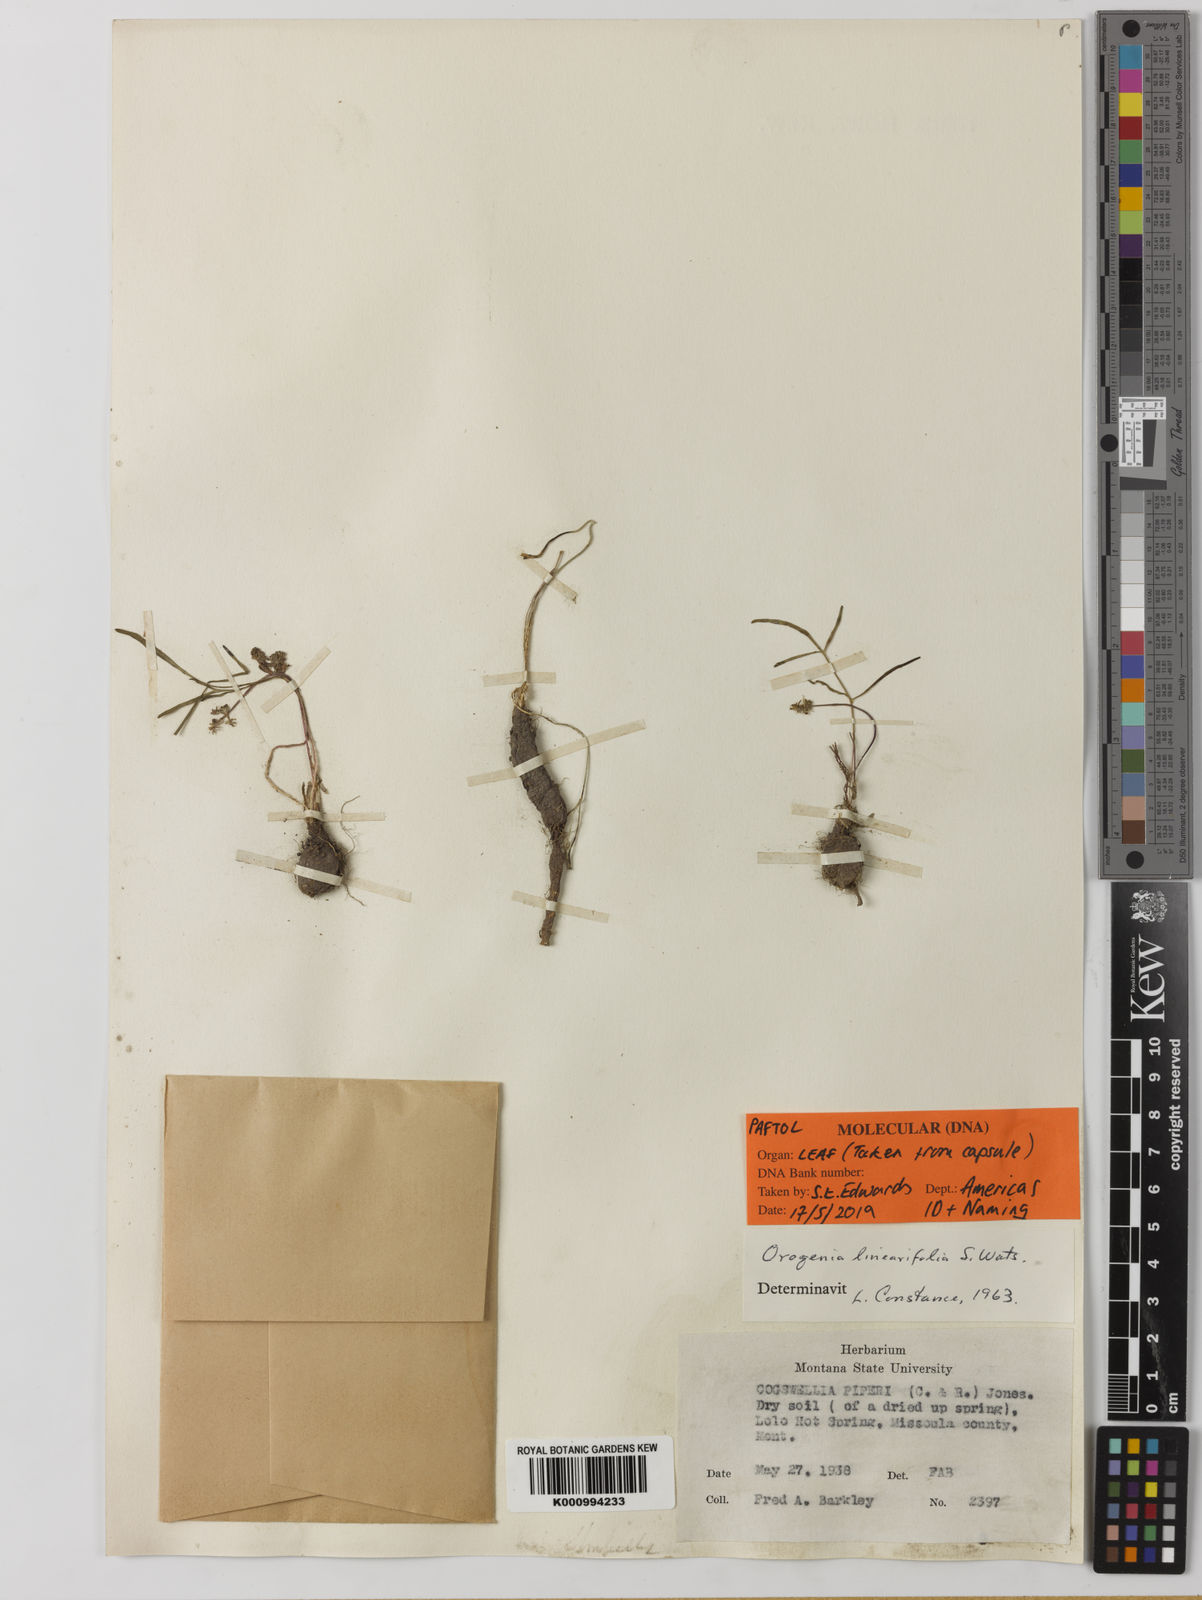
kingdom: Plantae
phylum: Tracheophyta
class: Magnoliopsida
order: Apiales
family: Apiaceae
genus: Lomatium
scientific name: Lomatium linearifolium
